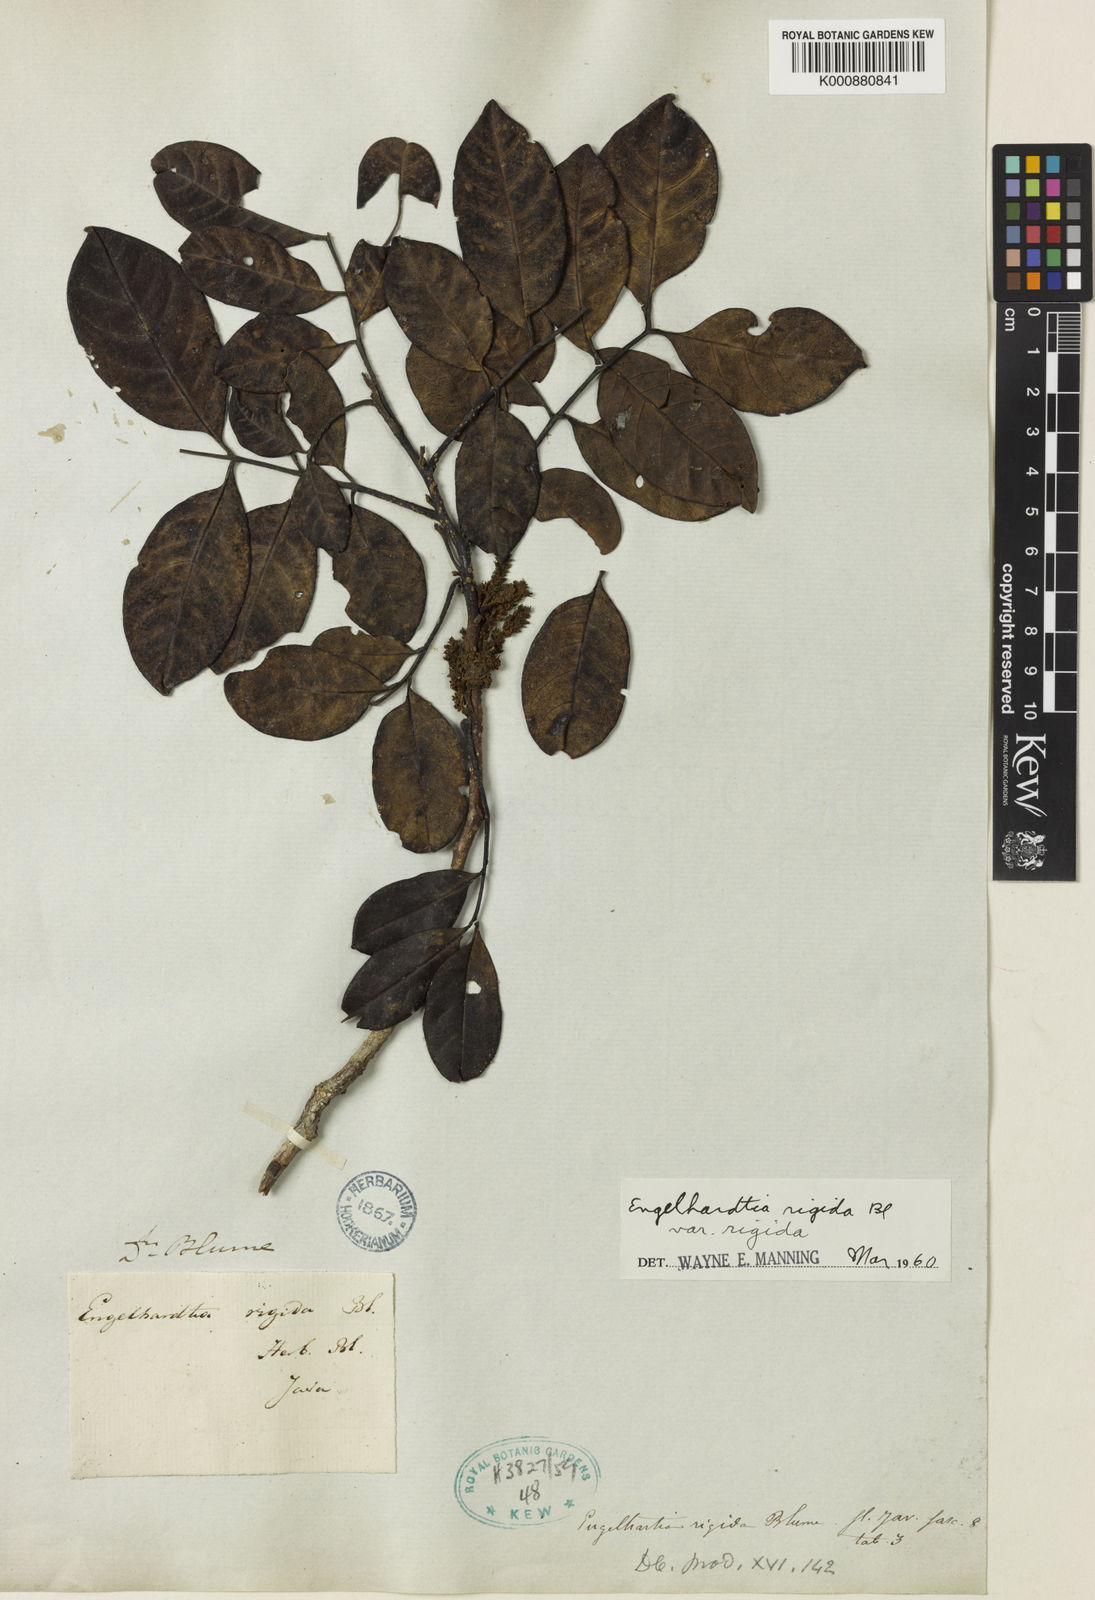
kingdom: Plantae
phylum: Tracheophyta
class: Magnoliopsida
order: Fagales
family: Juglandaceae
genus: Engelhardia
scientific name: Engelhardia rigida
